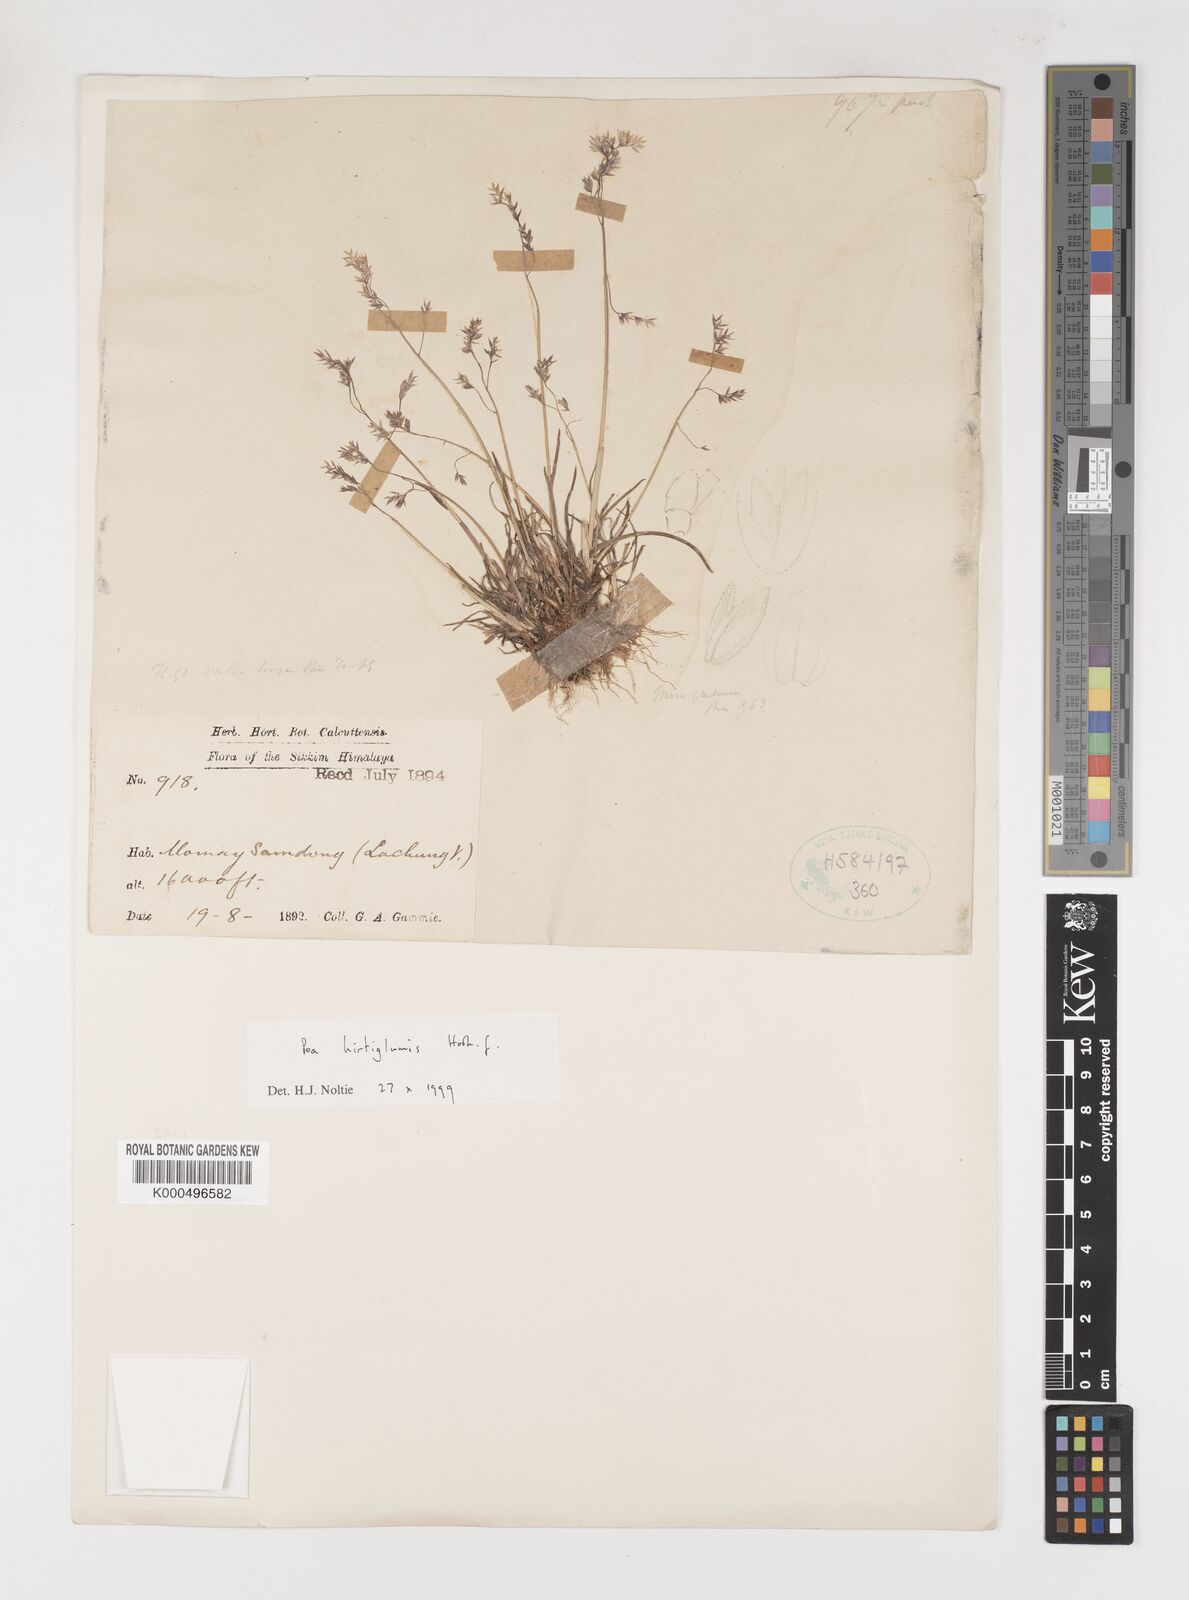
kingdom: Plantae
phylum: Tracheophyta
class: Liliopsida
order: Poales
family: Poaceae
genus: Poa
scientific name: Poa hirtiglumis
